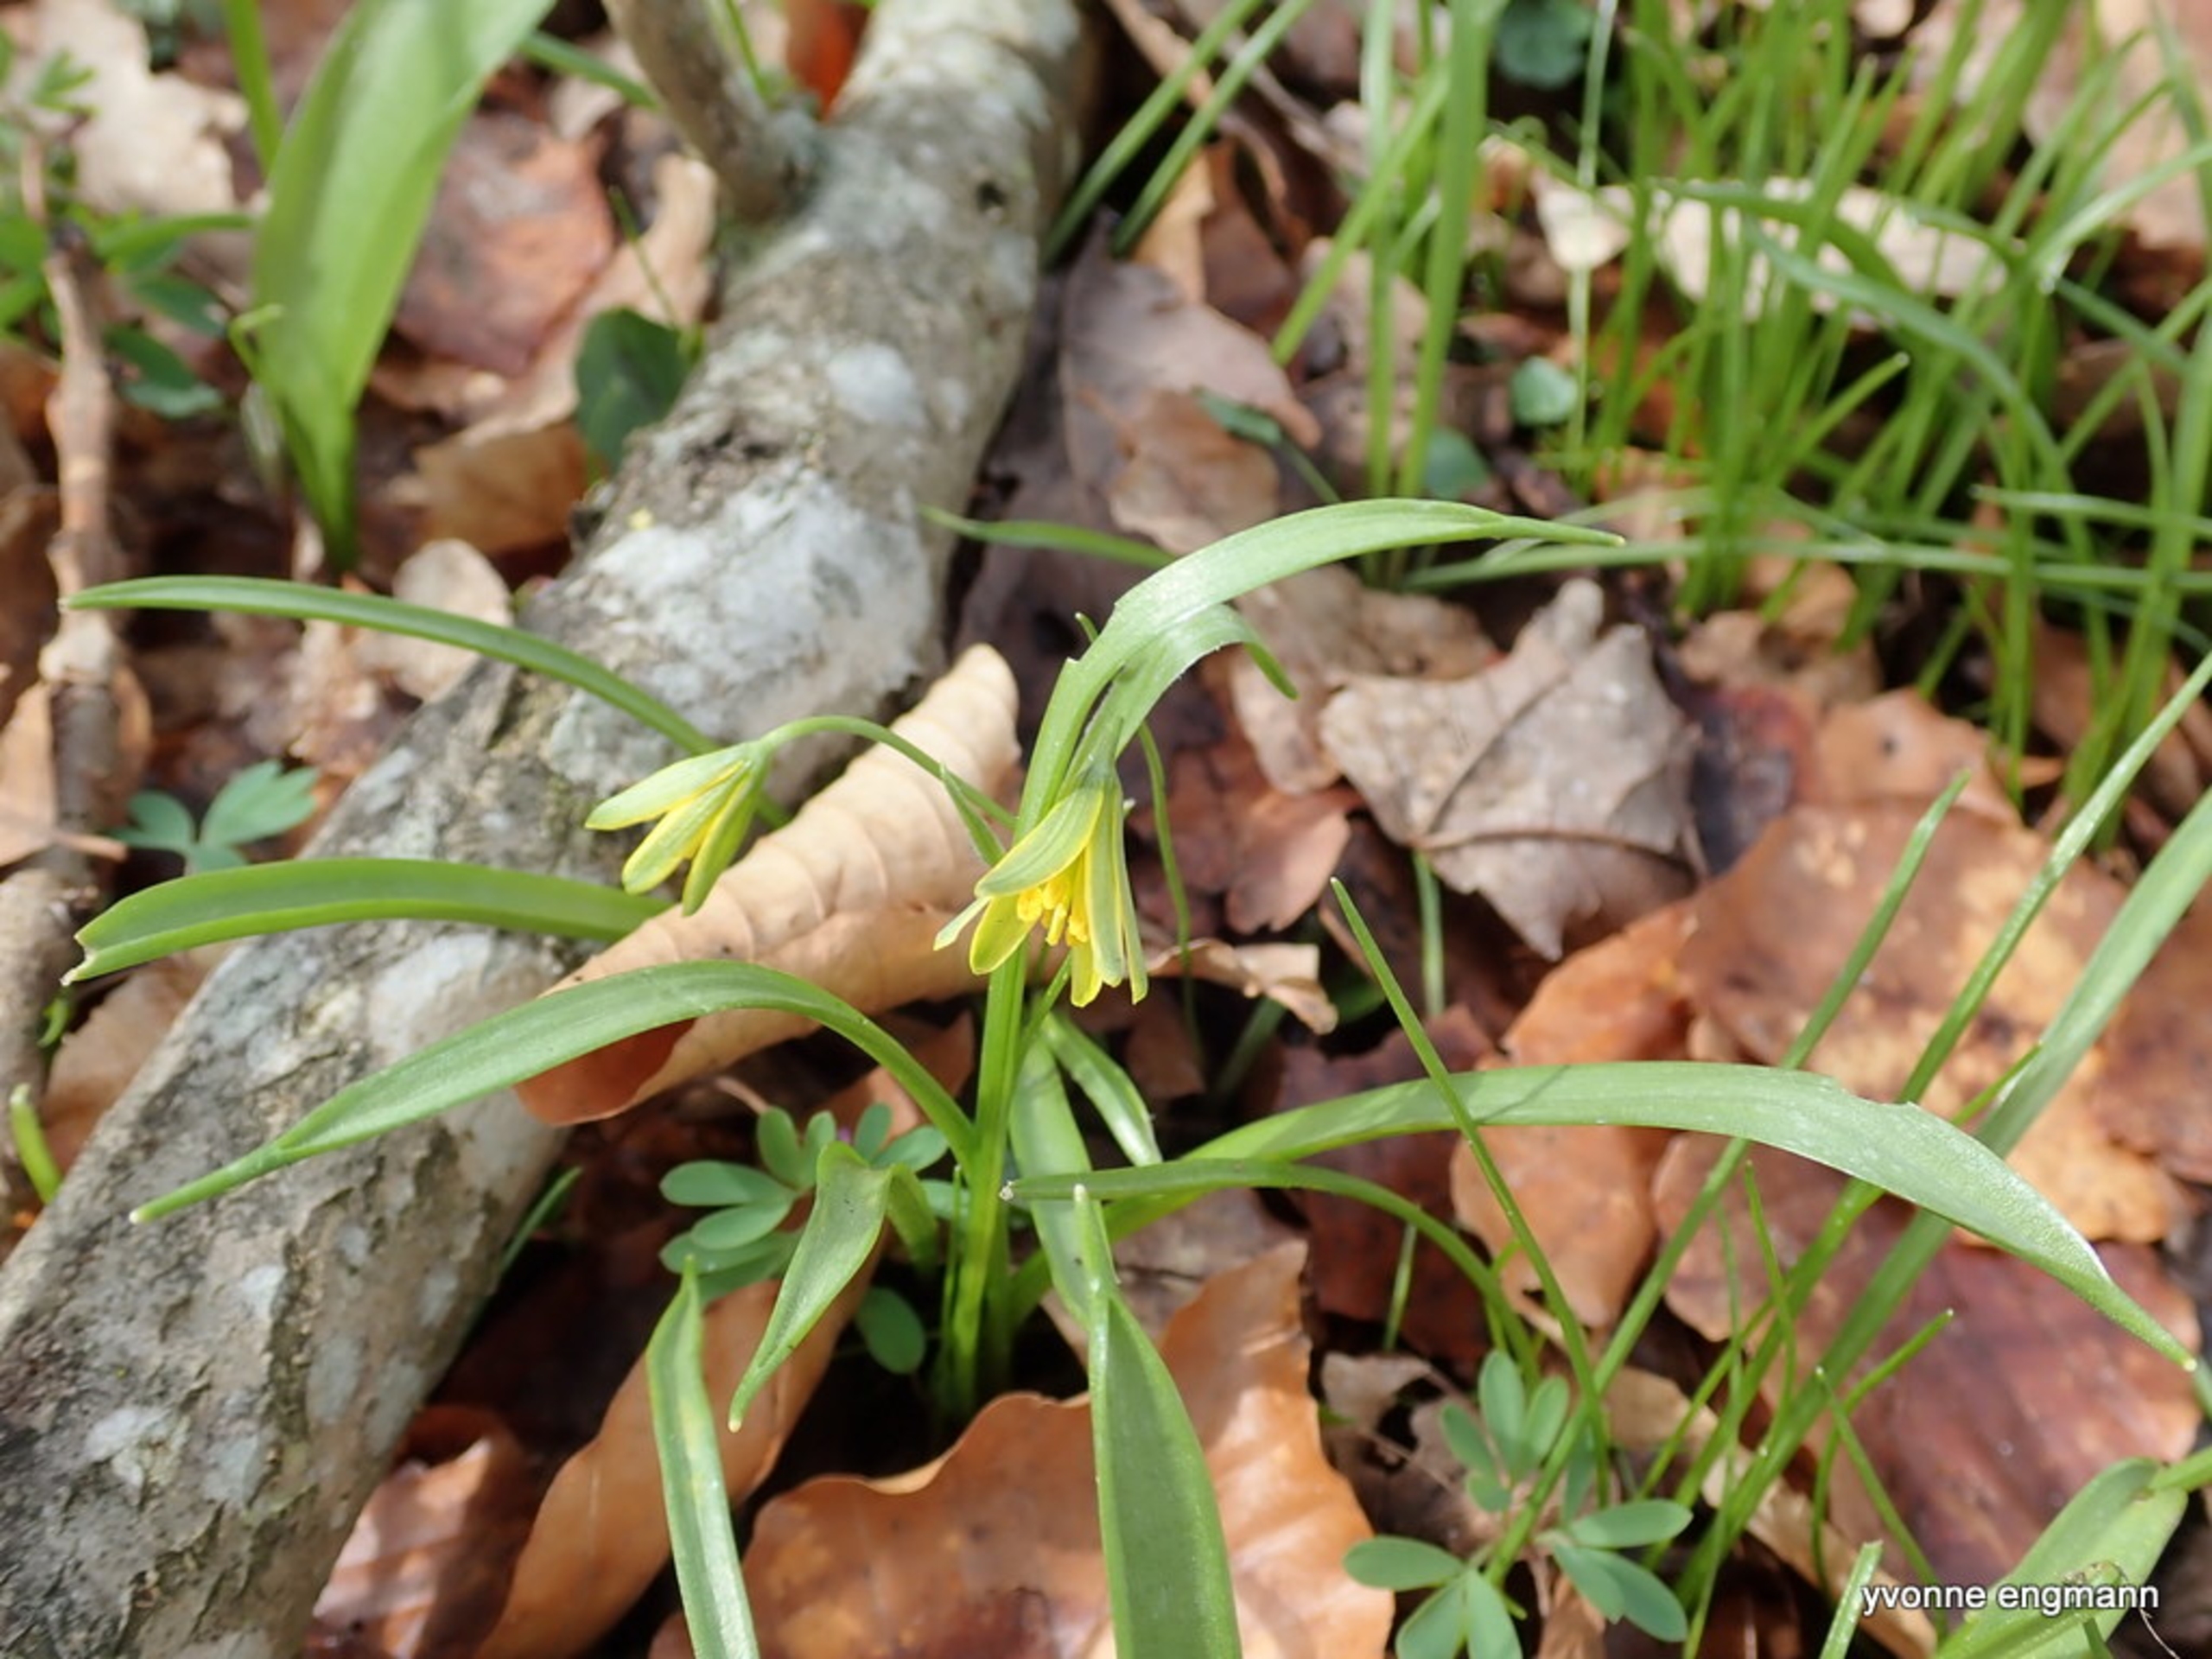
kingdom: Plantae
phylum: Tracheophyta
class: Liliopsida
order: Liliales
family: Liliaceae
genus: Gagea
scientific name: Gagea lutea
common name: Almindelig guldstjerne
